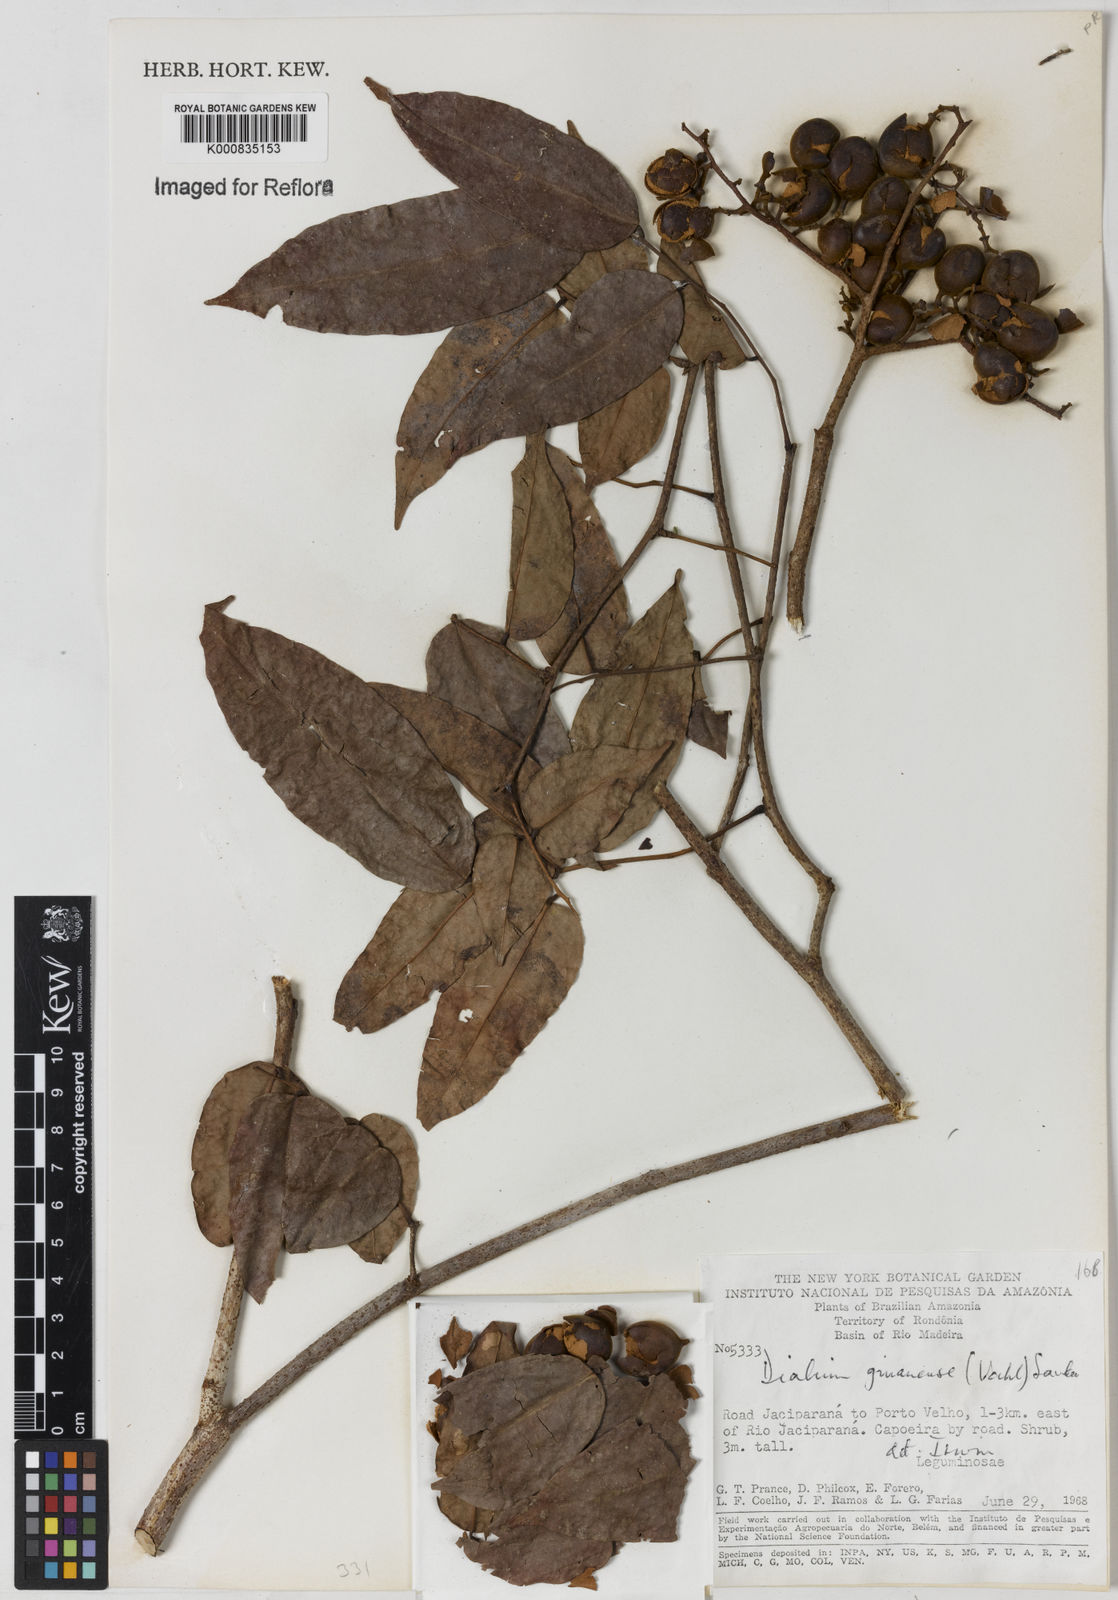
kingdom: Plantae
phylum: Tracheophyta
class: Magnoliopsida
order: Fabales
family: Fabaceae
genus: Dialium
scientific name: Dialium guianense
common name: Ironwood
